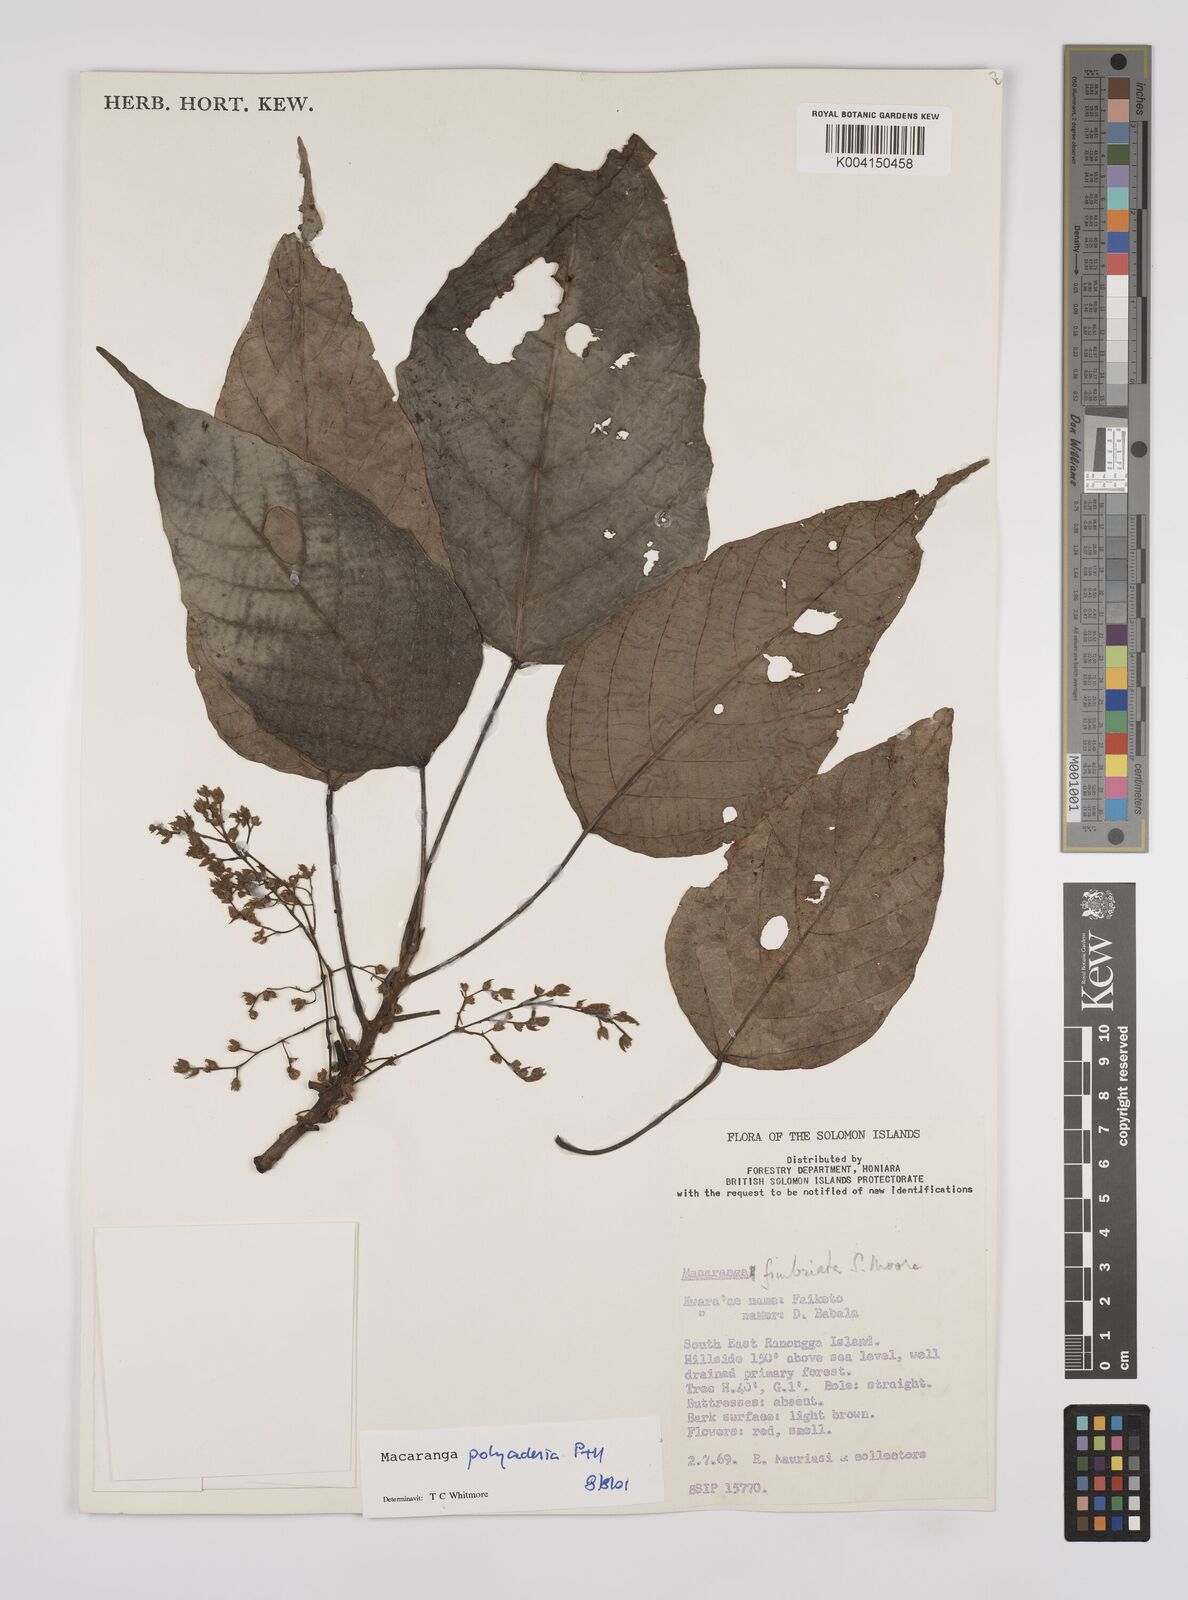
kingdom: Plantae
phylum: Tracheophyta
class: Magnoliopsida
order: Malpighiales
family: Euphorbiaceae
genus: Macaranga
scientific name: Macaranga polyadenia
